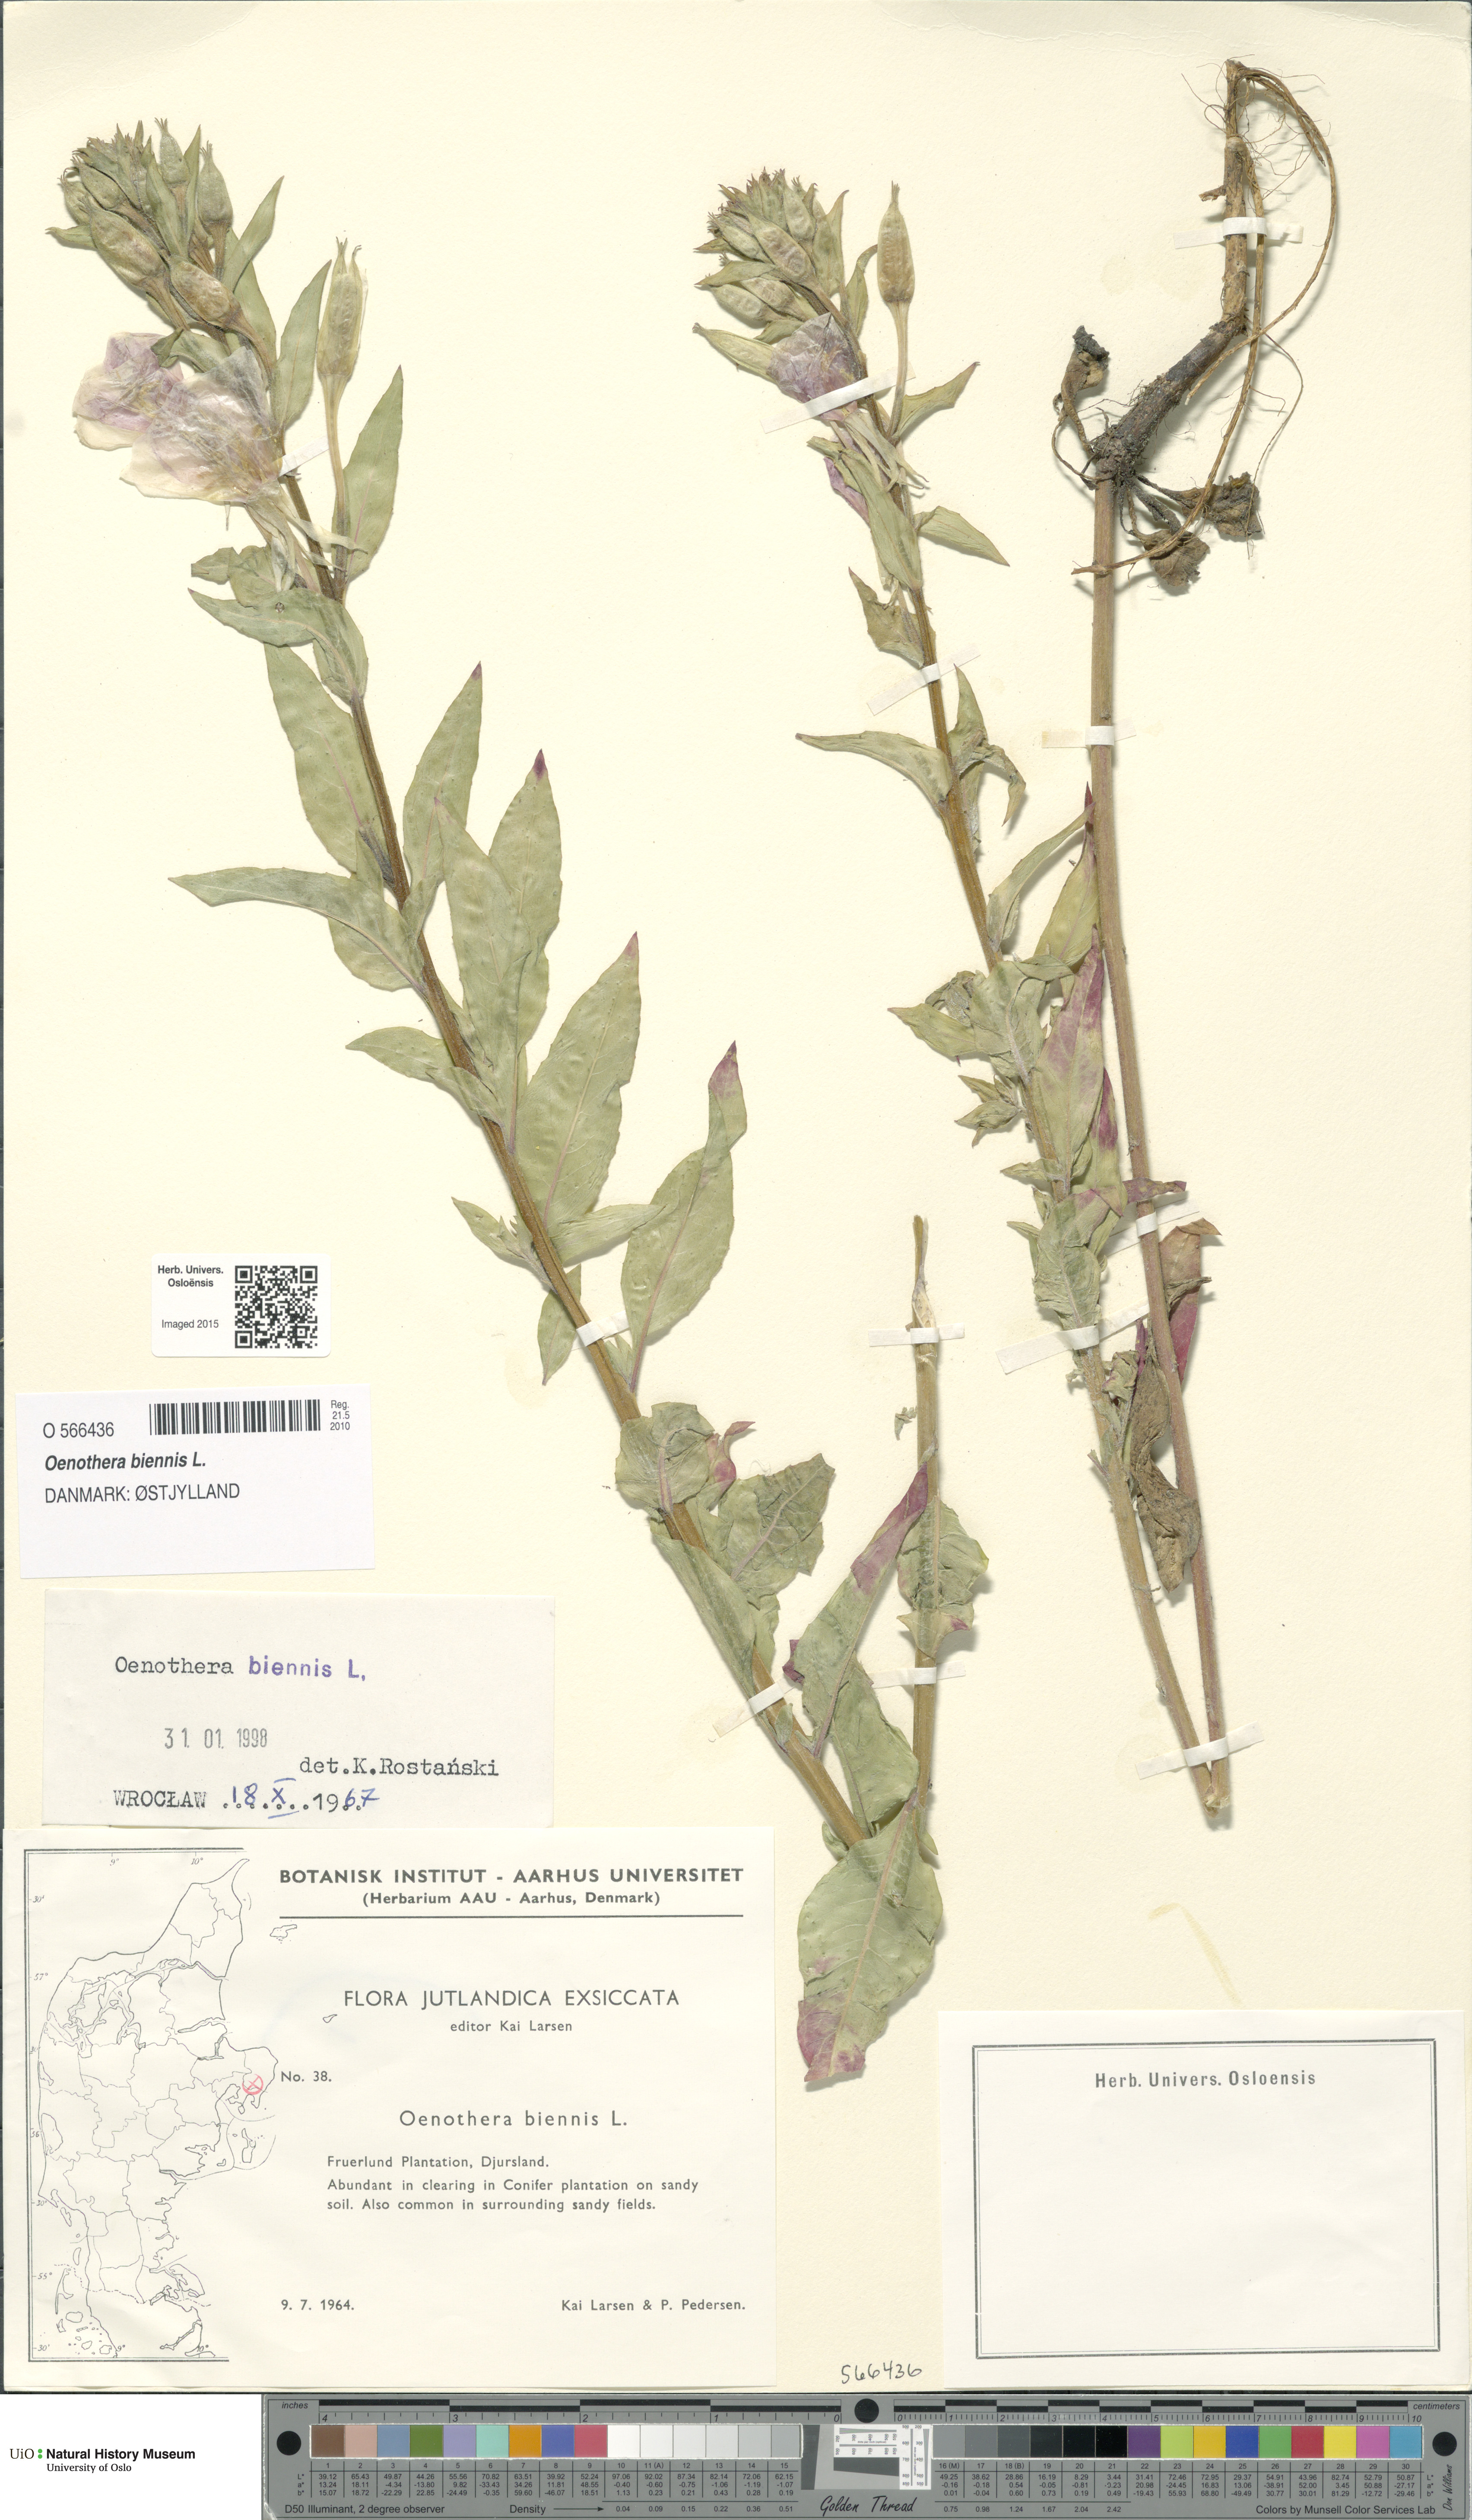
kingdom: Plantae
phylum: Tracheophyta
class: Magnoliopsida
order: Myrtales
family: Onagraceae
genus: Oenothera
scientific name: Oenothera biennis
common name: Common evening-primrose
